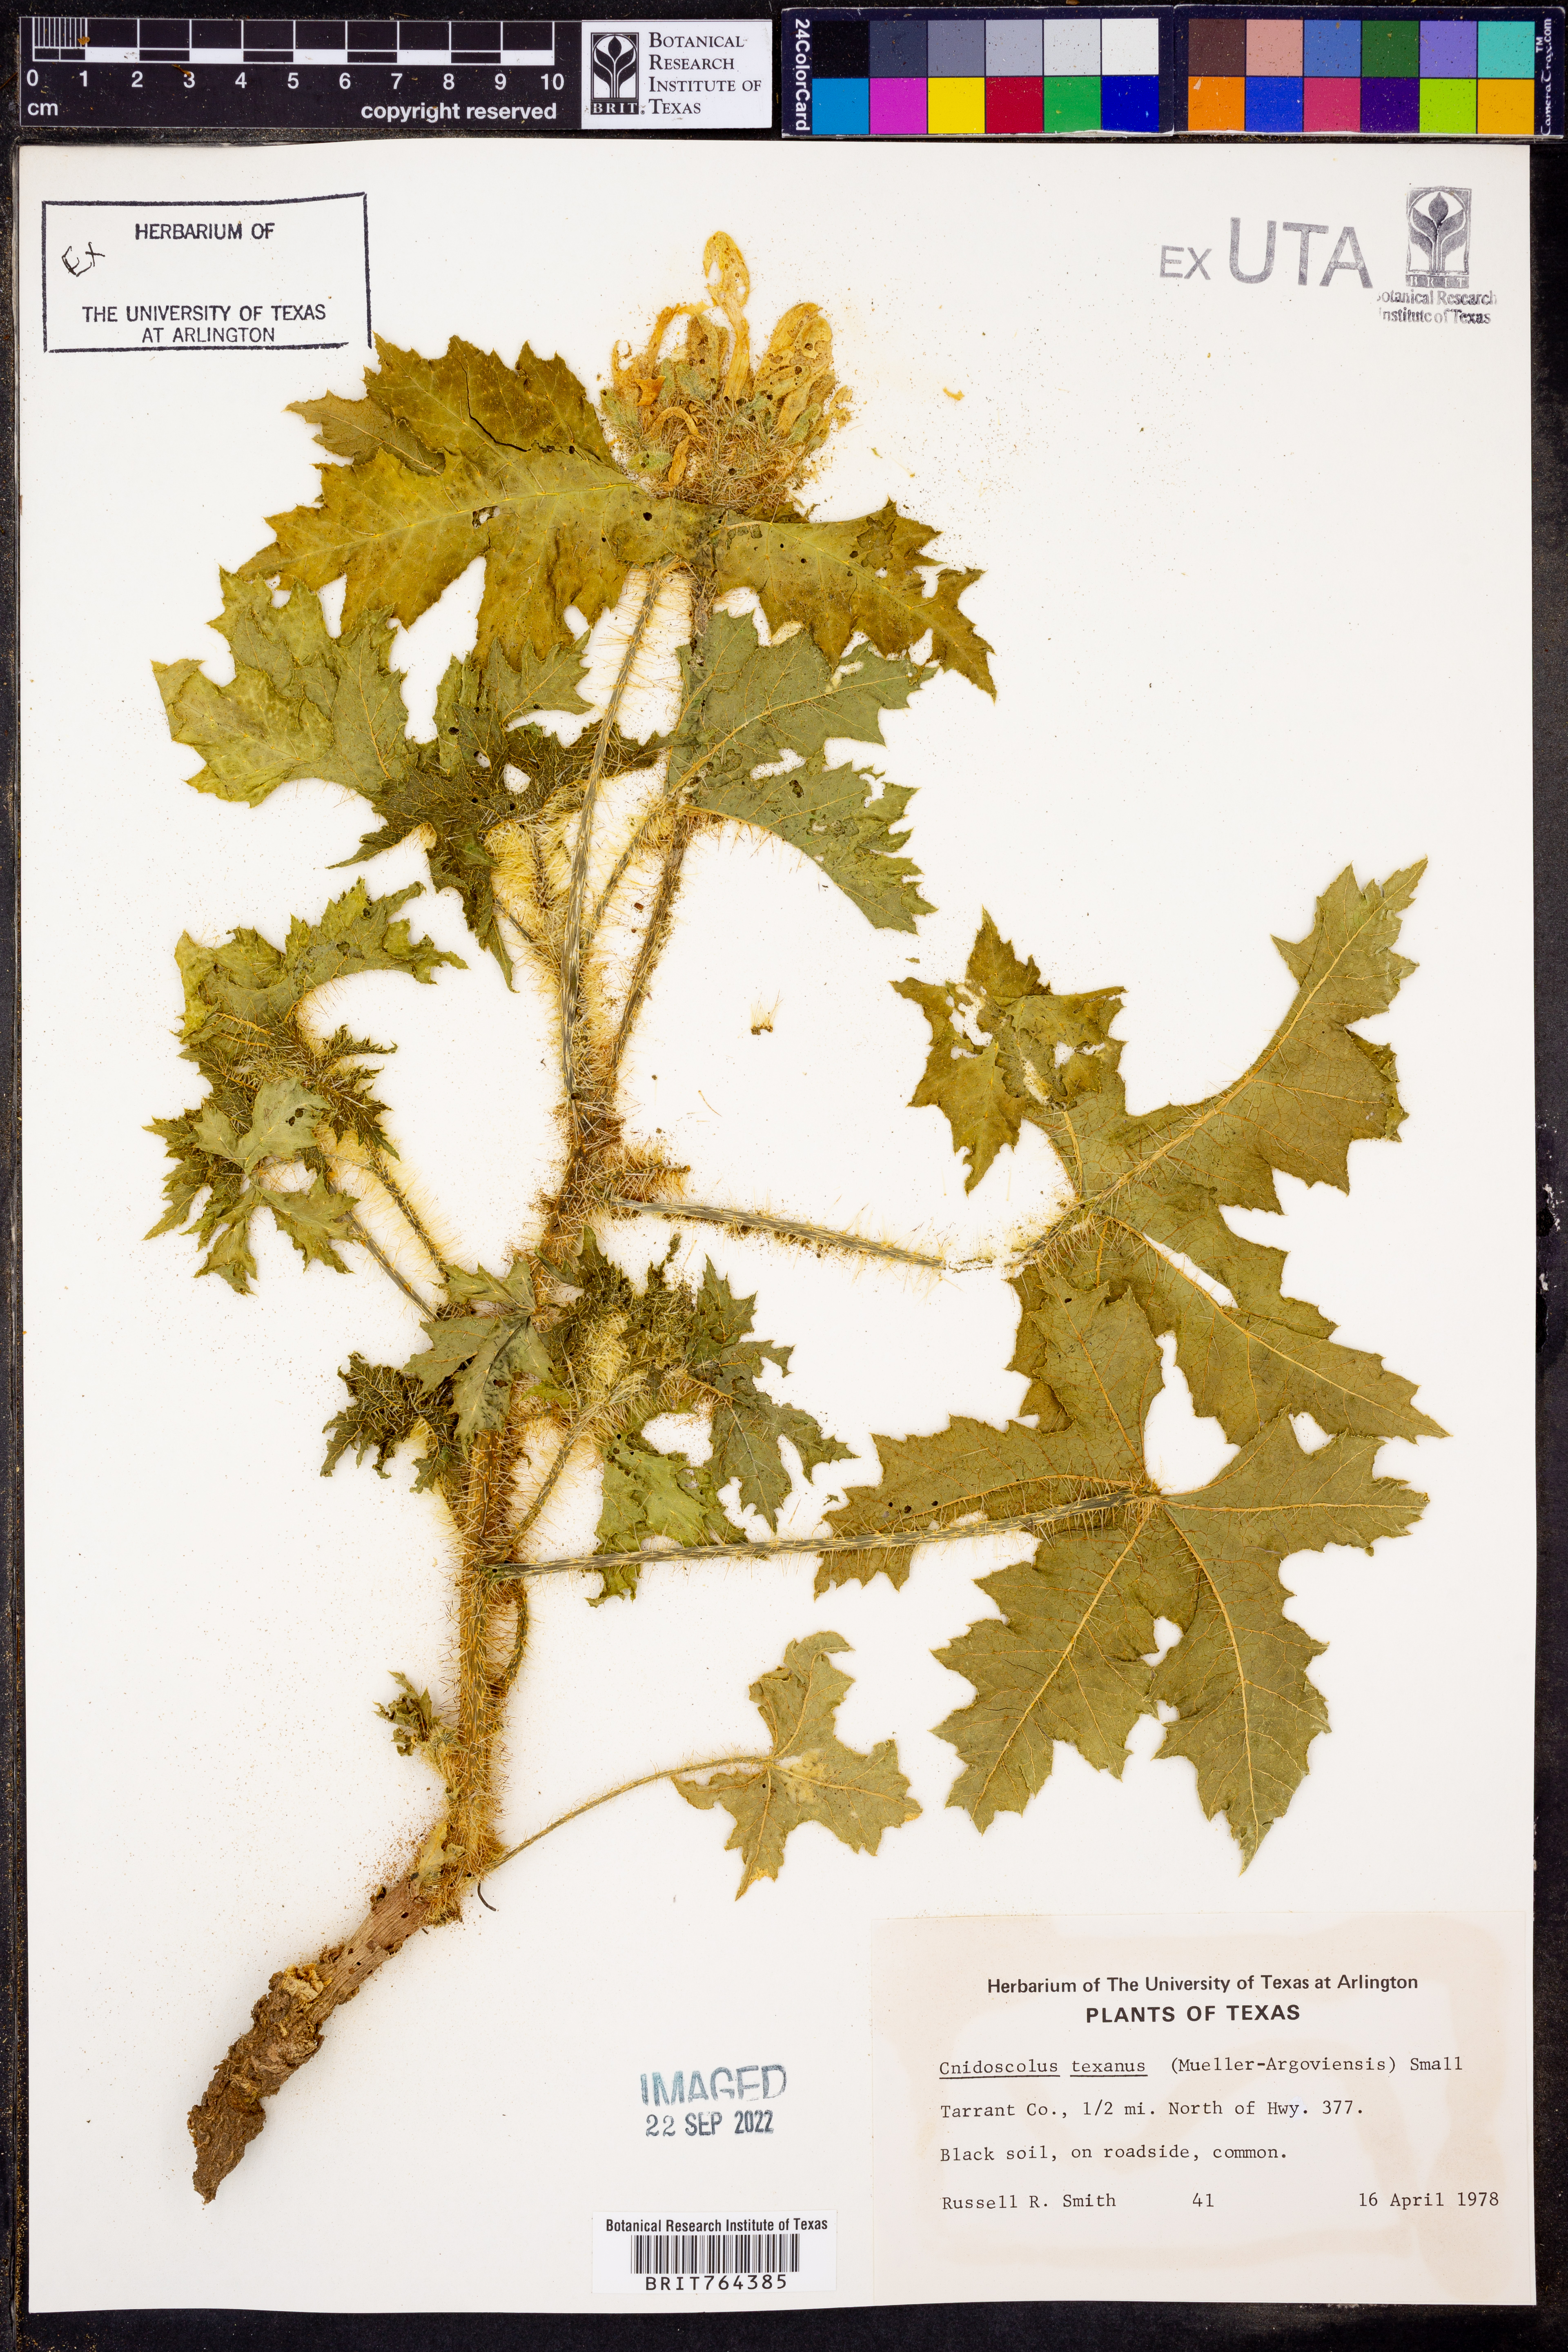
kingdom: Plantae
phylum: Tracheophyta
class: Magnoliopsida
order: Malpighiales
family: Euphorbiaceae
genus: Cnidoscolus
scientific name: Cnidoscolus texanus
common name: Texas bull-nettle
